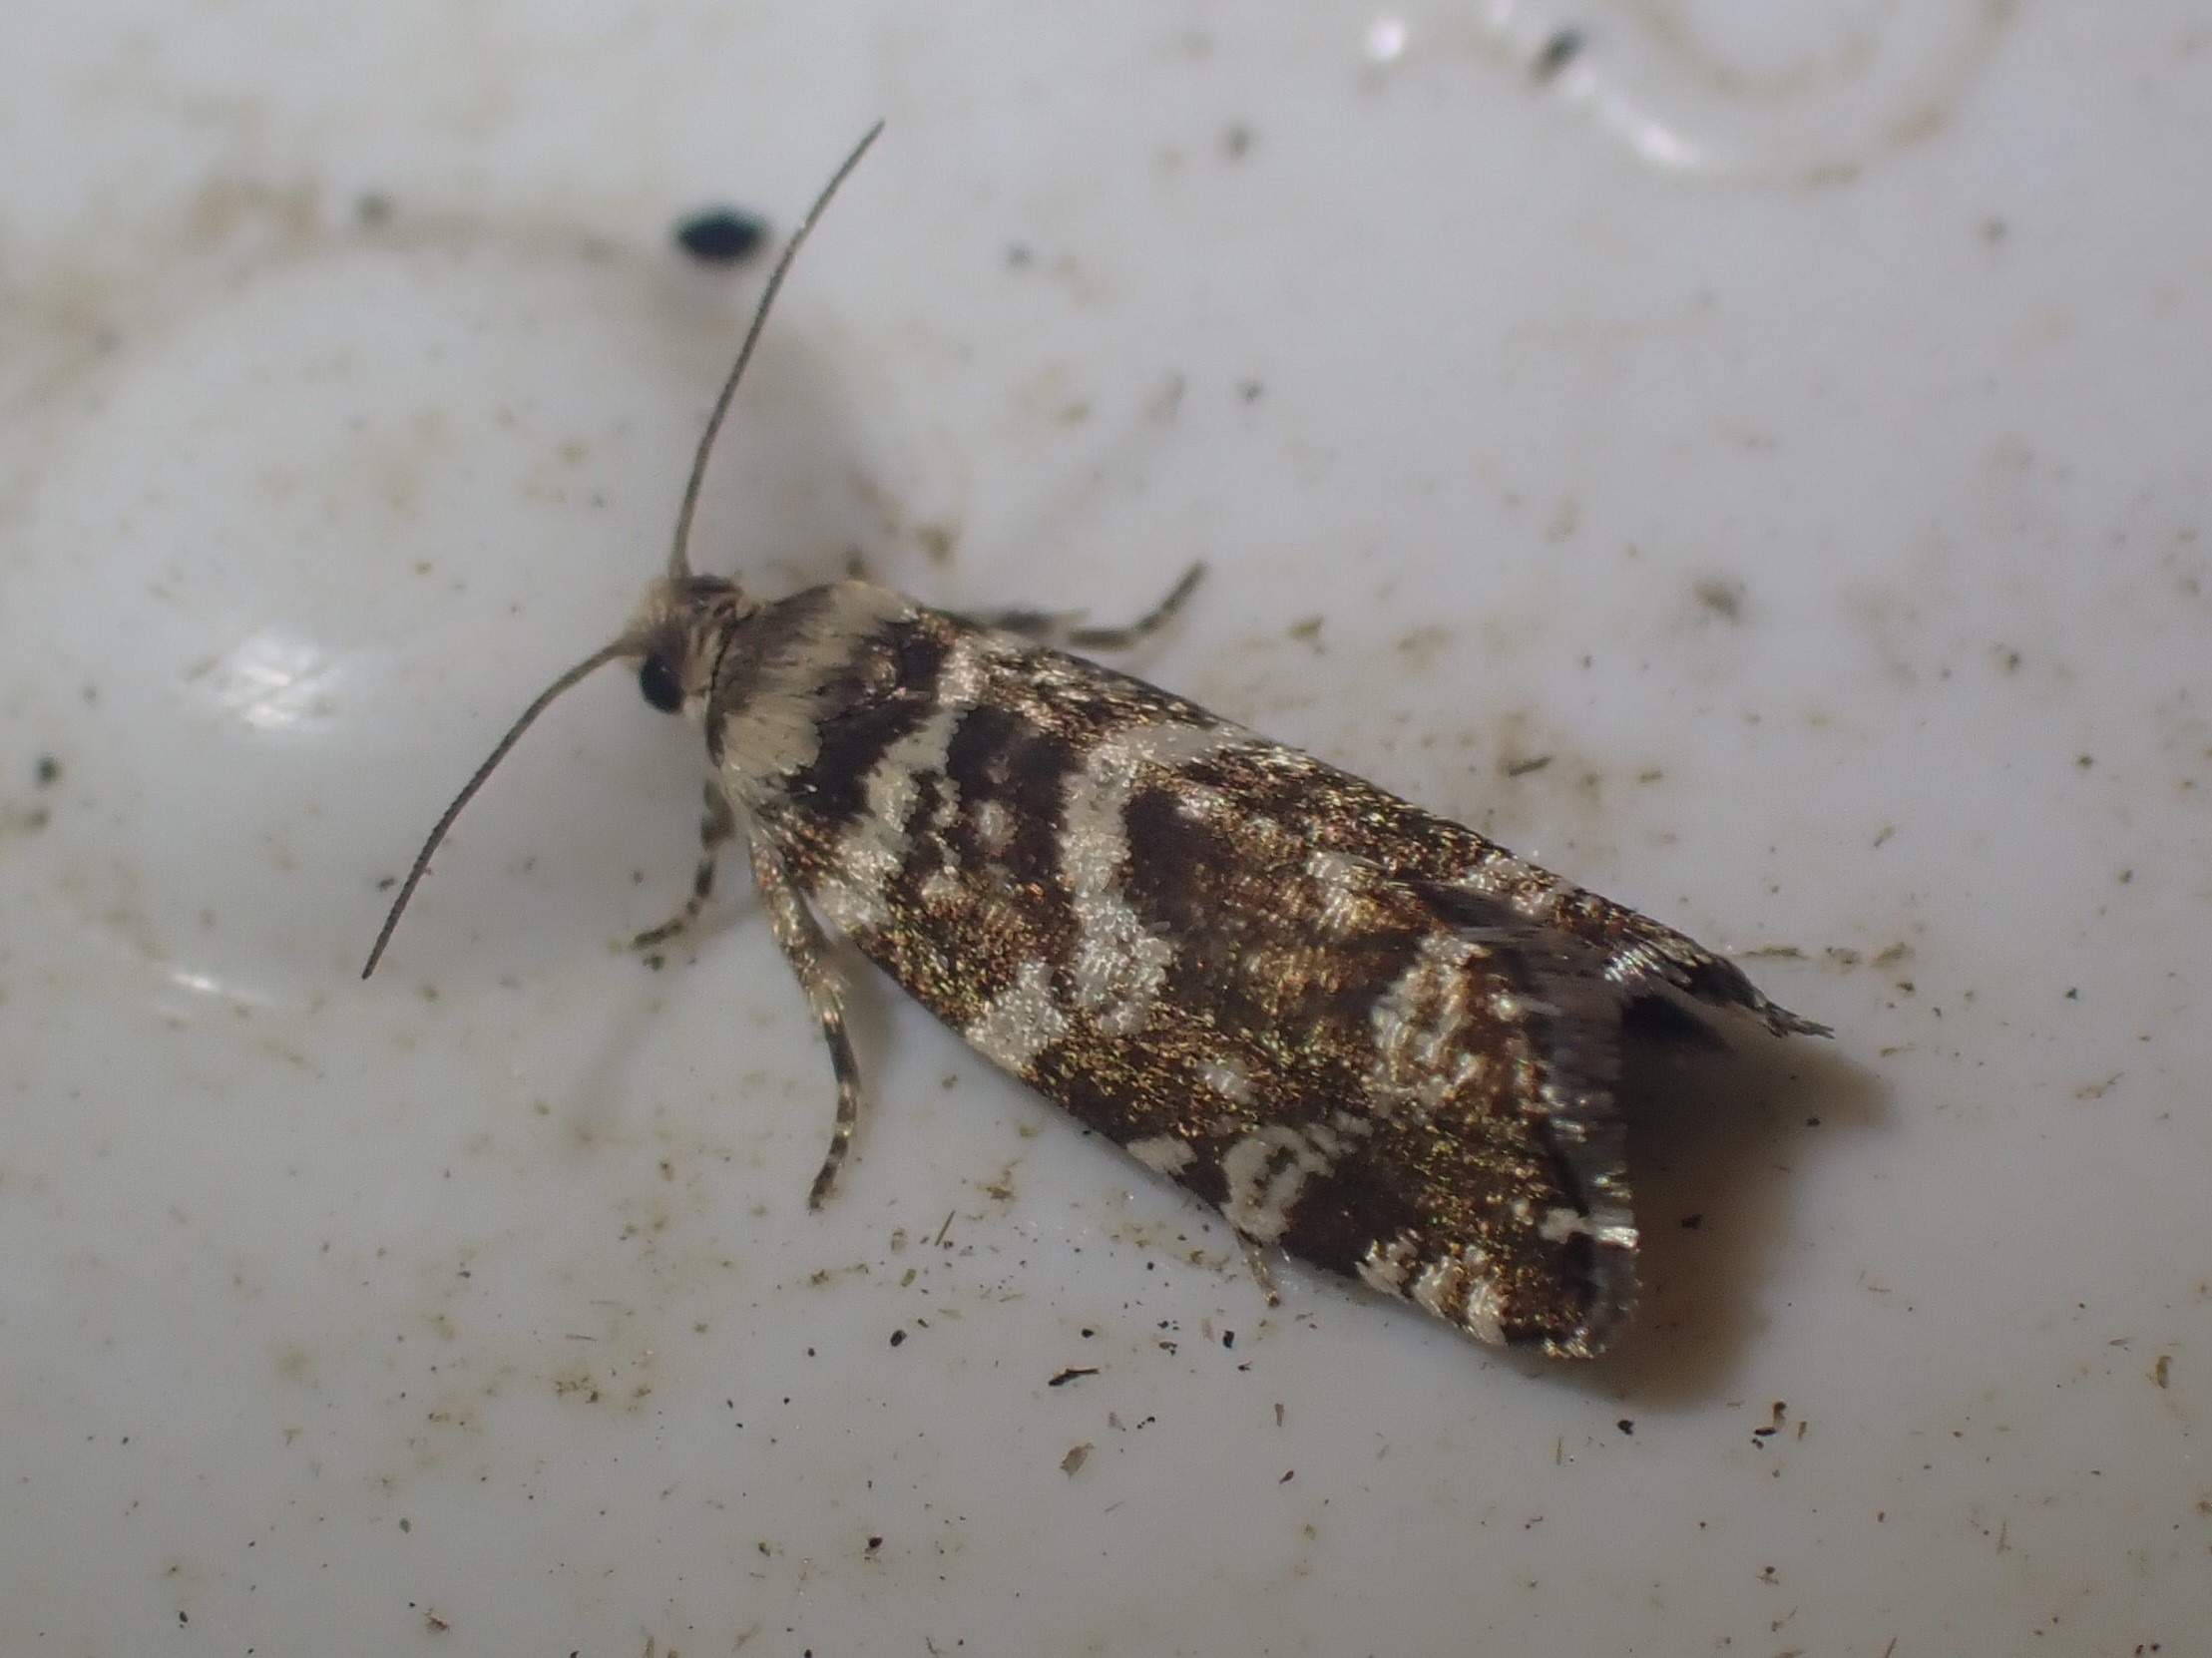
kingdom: Animalia
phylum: Arthropoda
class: Insecta
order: Lepidoptera
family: Tortricidae
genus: Epinotia
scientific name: Epinotia tedella
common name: Grannålevikler
